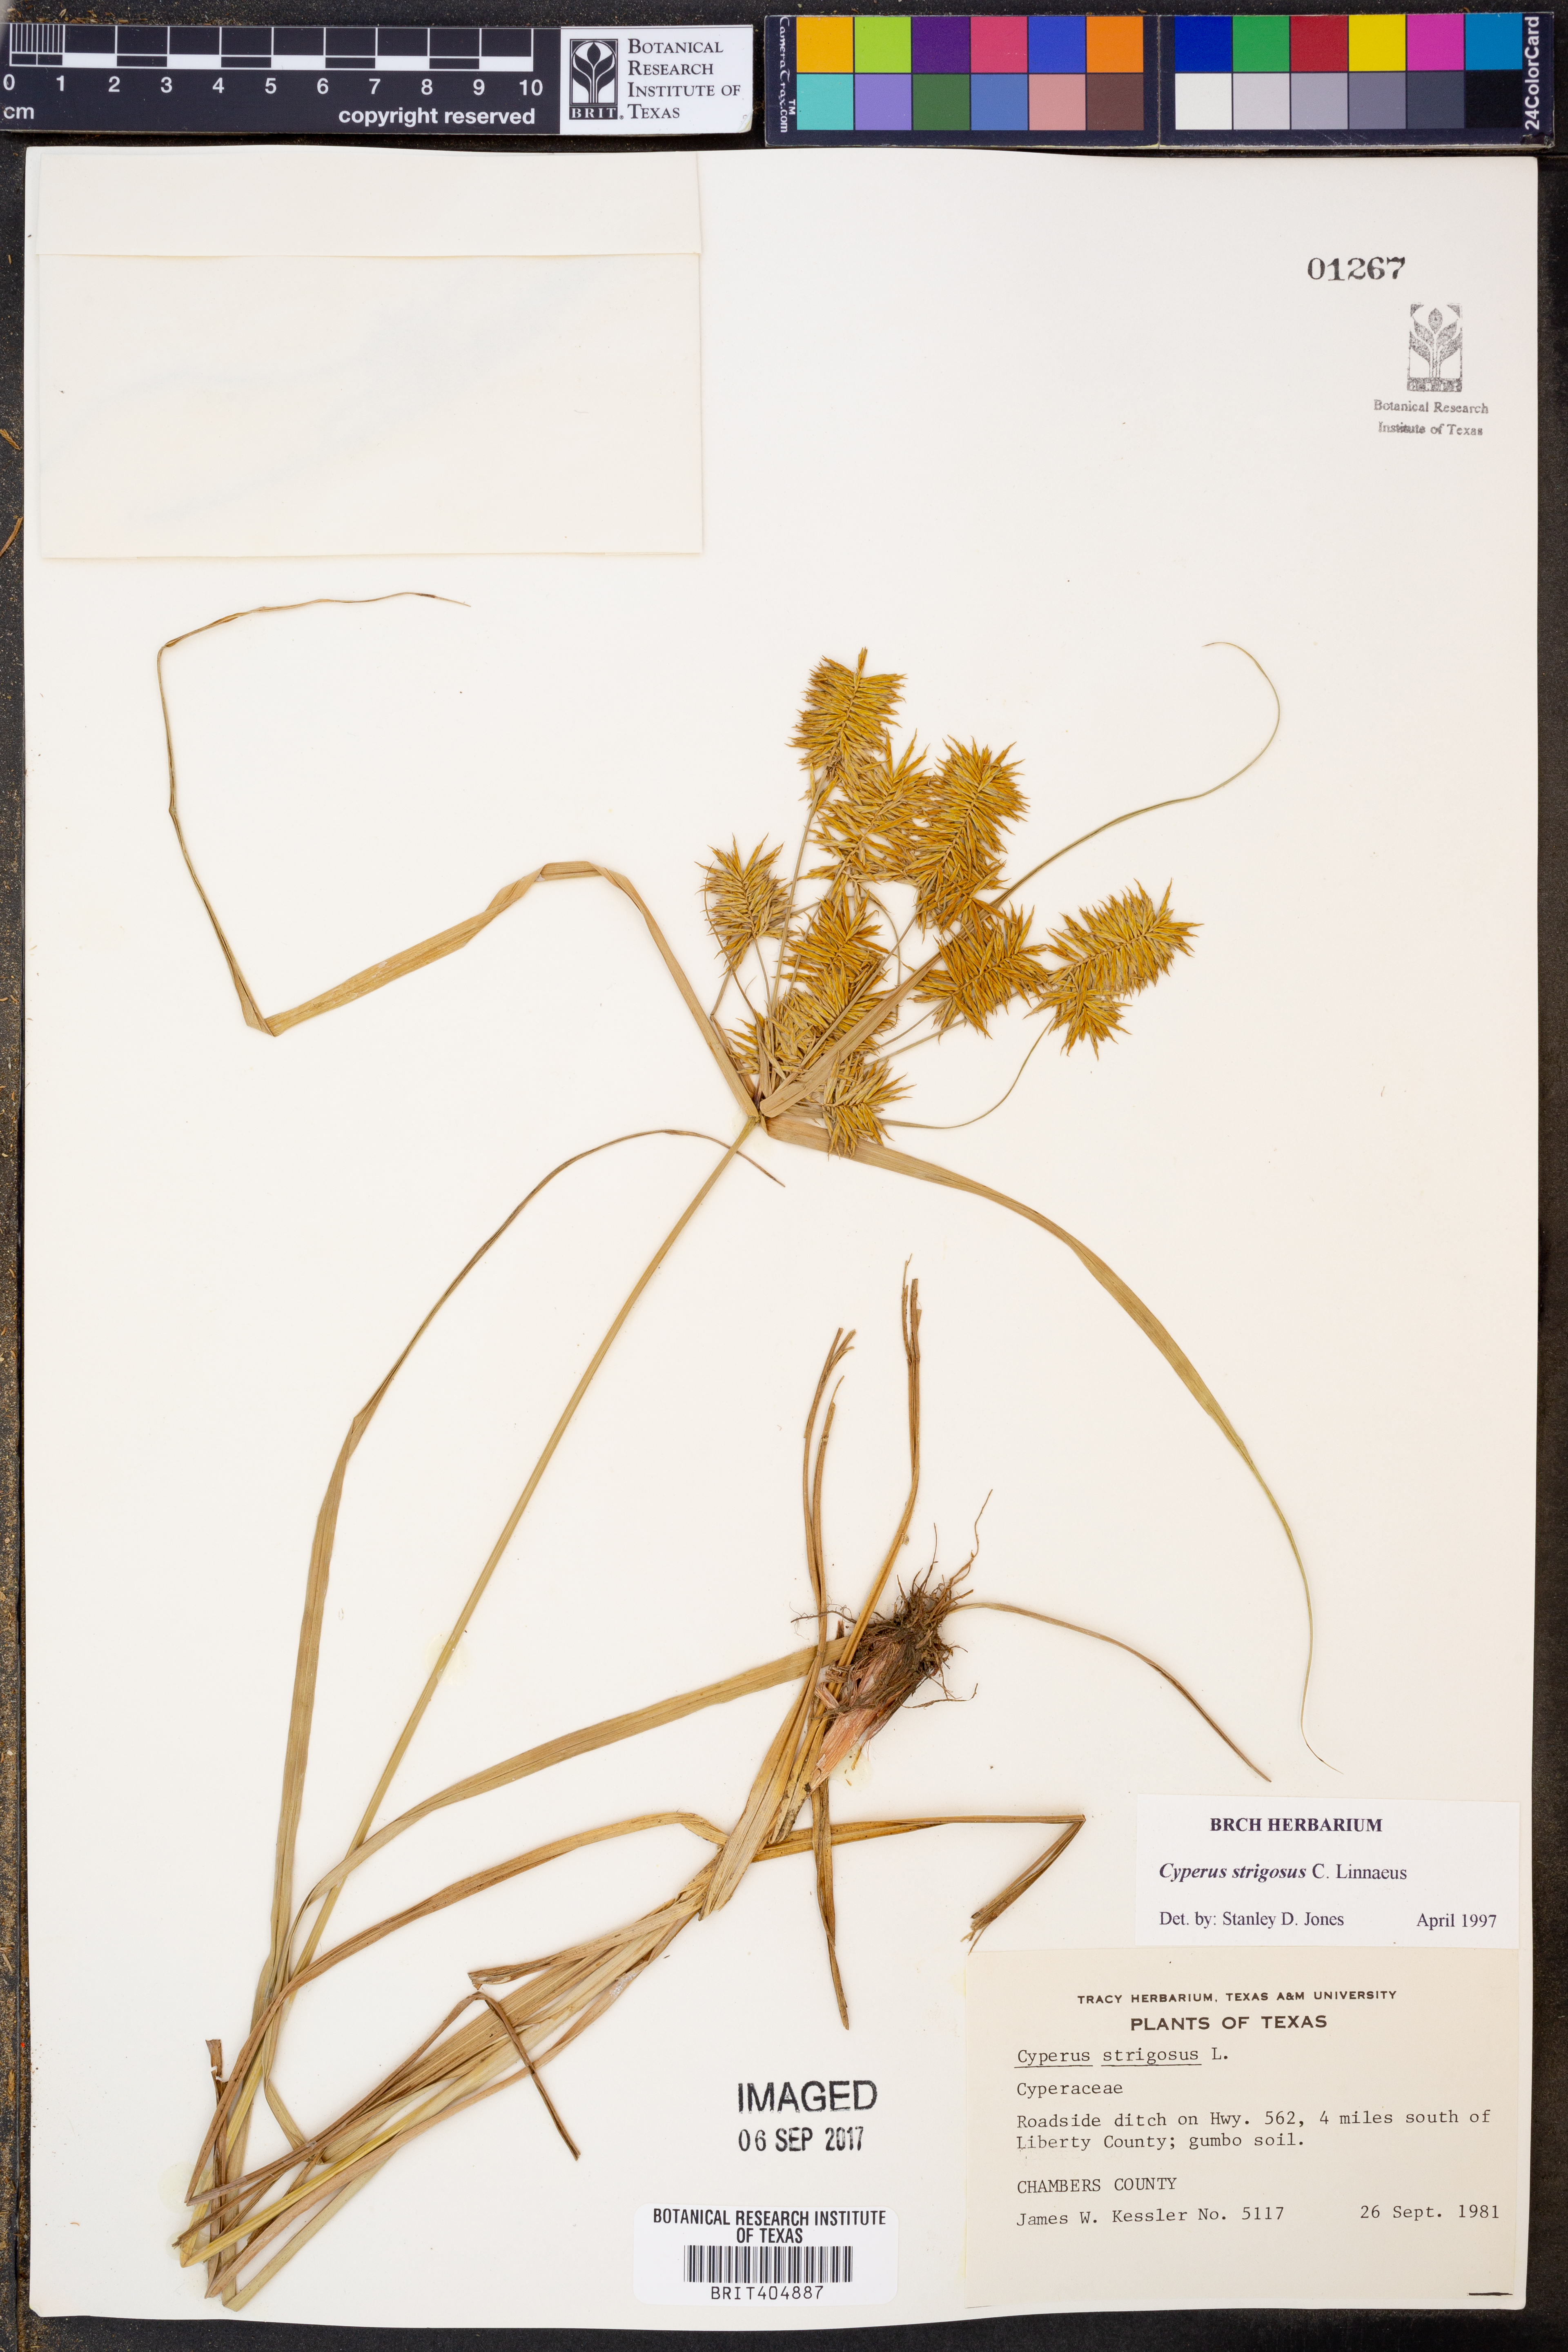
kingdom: Plantae
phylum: Tracheophyta
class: Liliopsida
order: Poales
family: Cyperaceae
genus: Cyperus
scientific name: Cyperus strigosus
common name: False nutsedge
